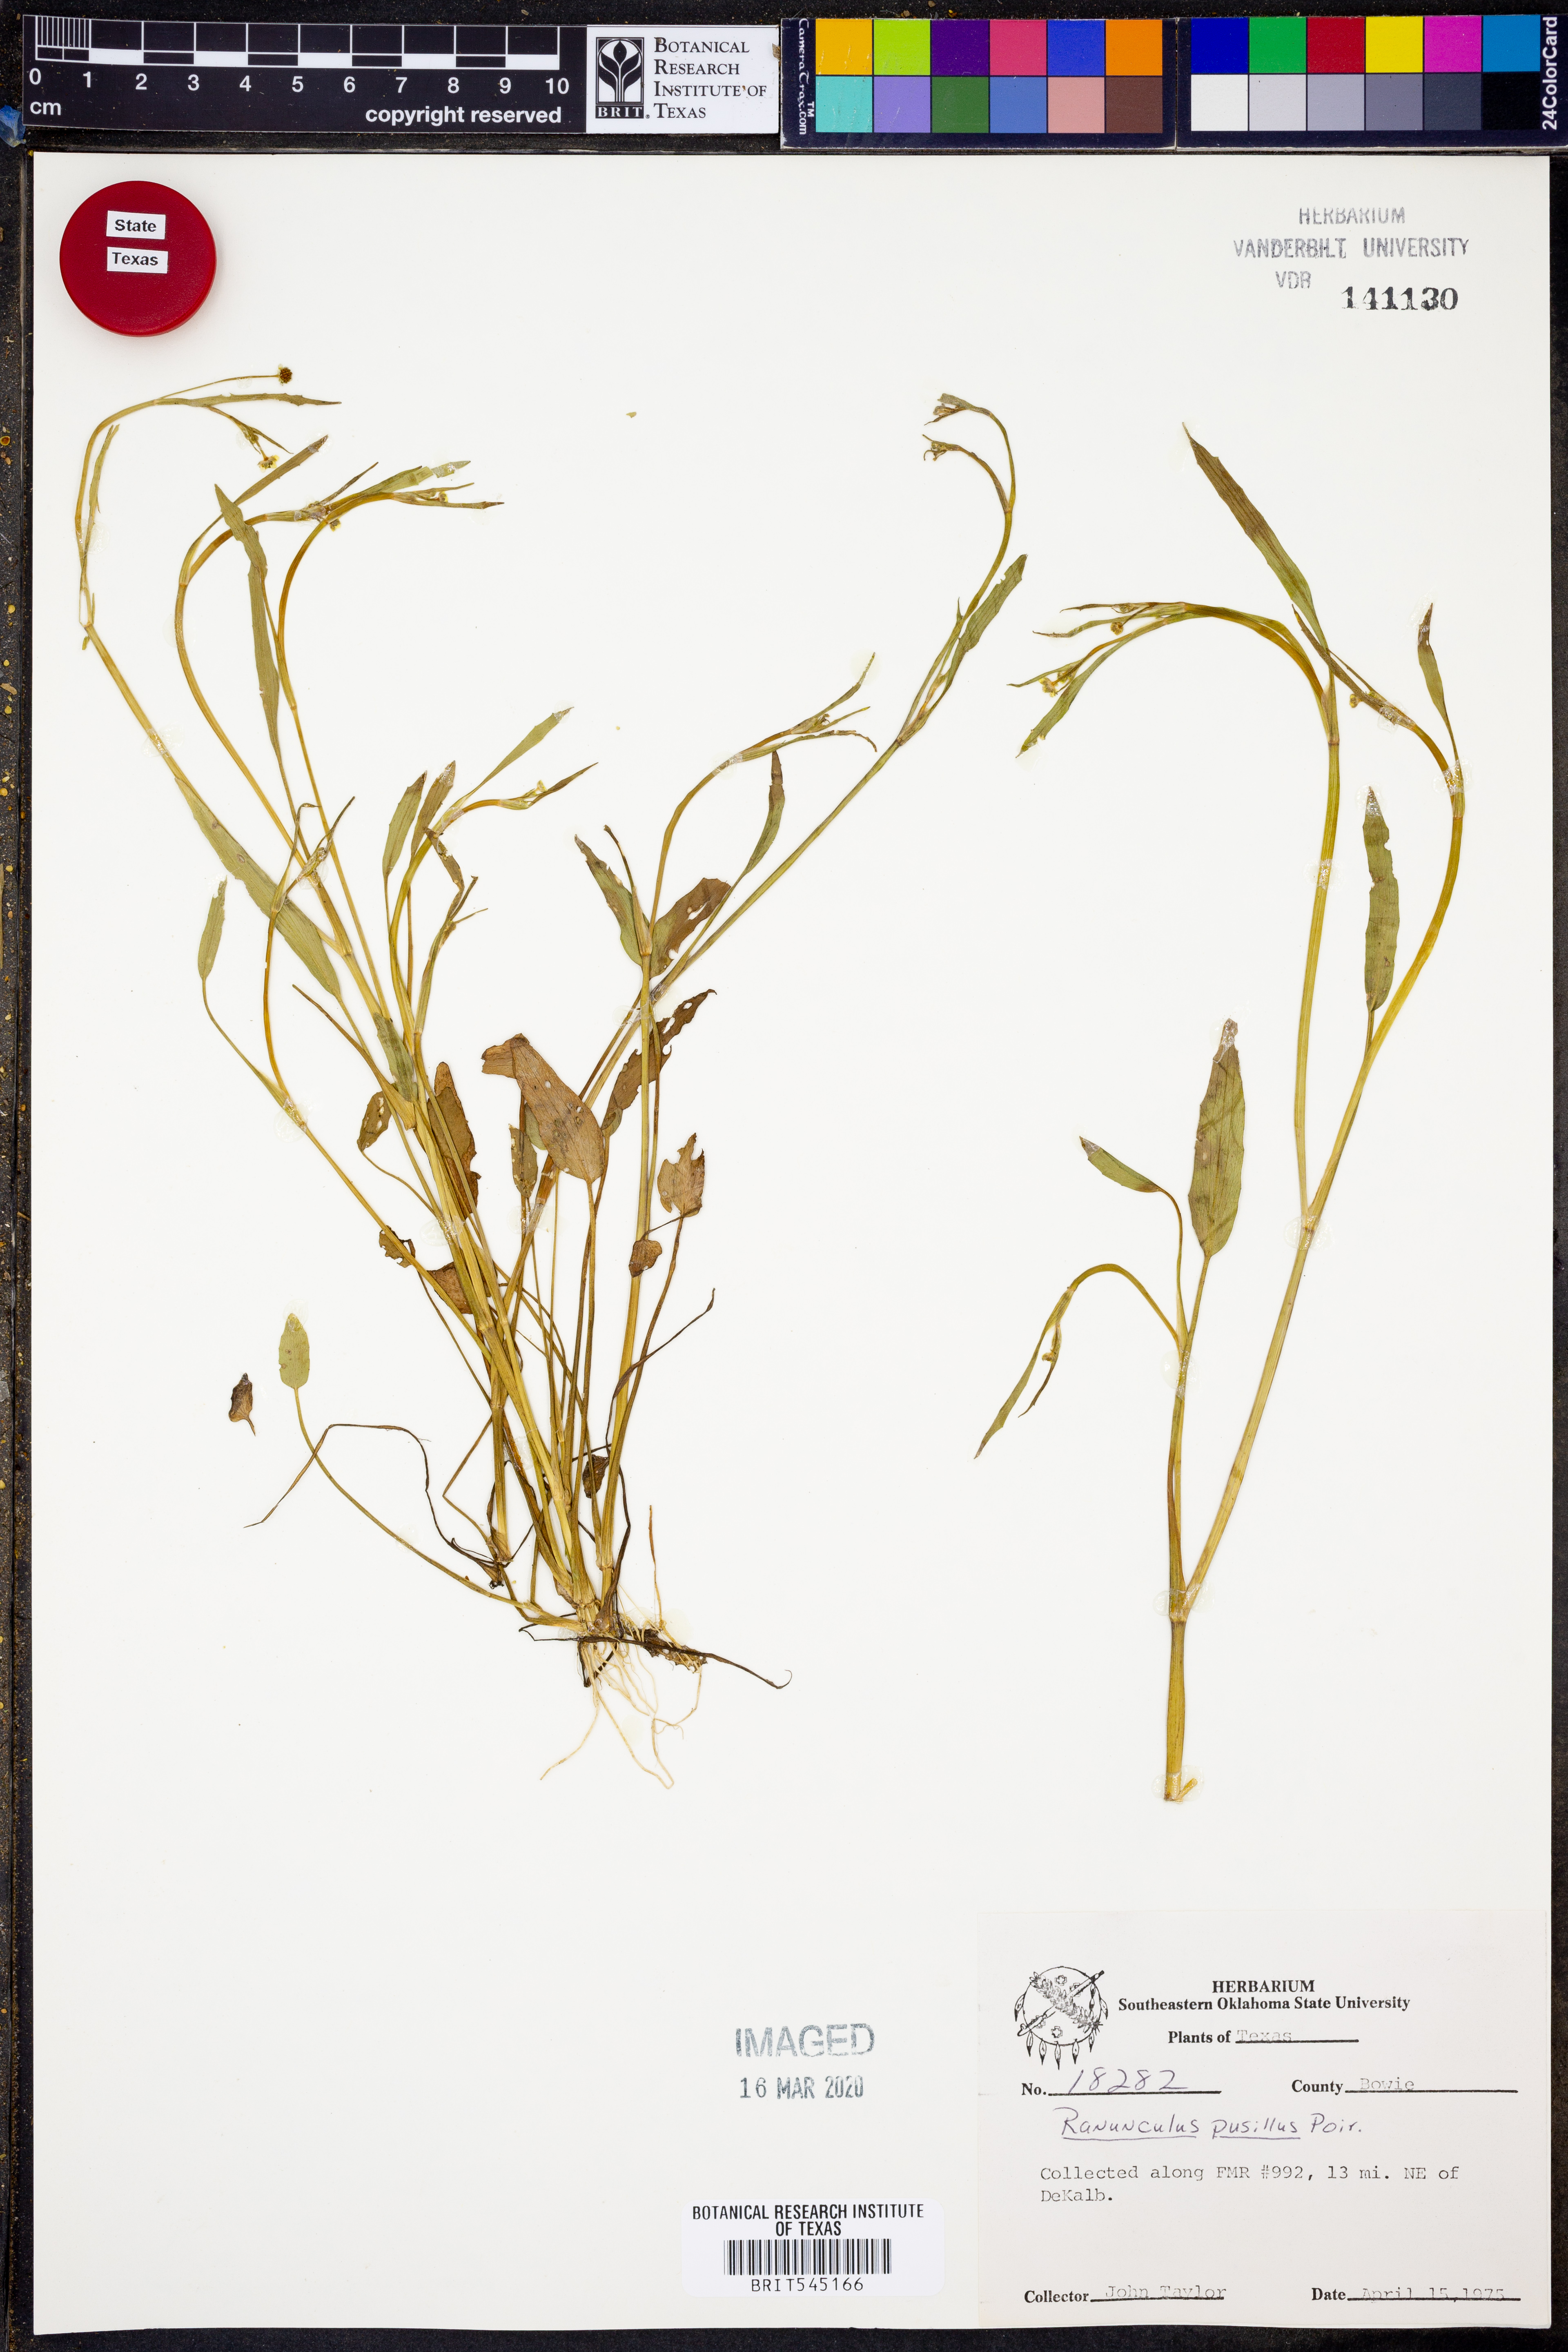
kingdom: Plantae
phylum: Tracheophyta
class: Magnoliopsida
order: Ranunculales
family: Ranunculaceae
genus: Ranunculus
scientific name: Ranunculus pusillus
